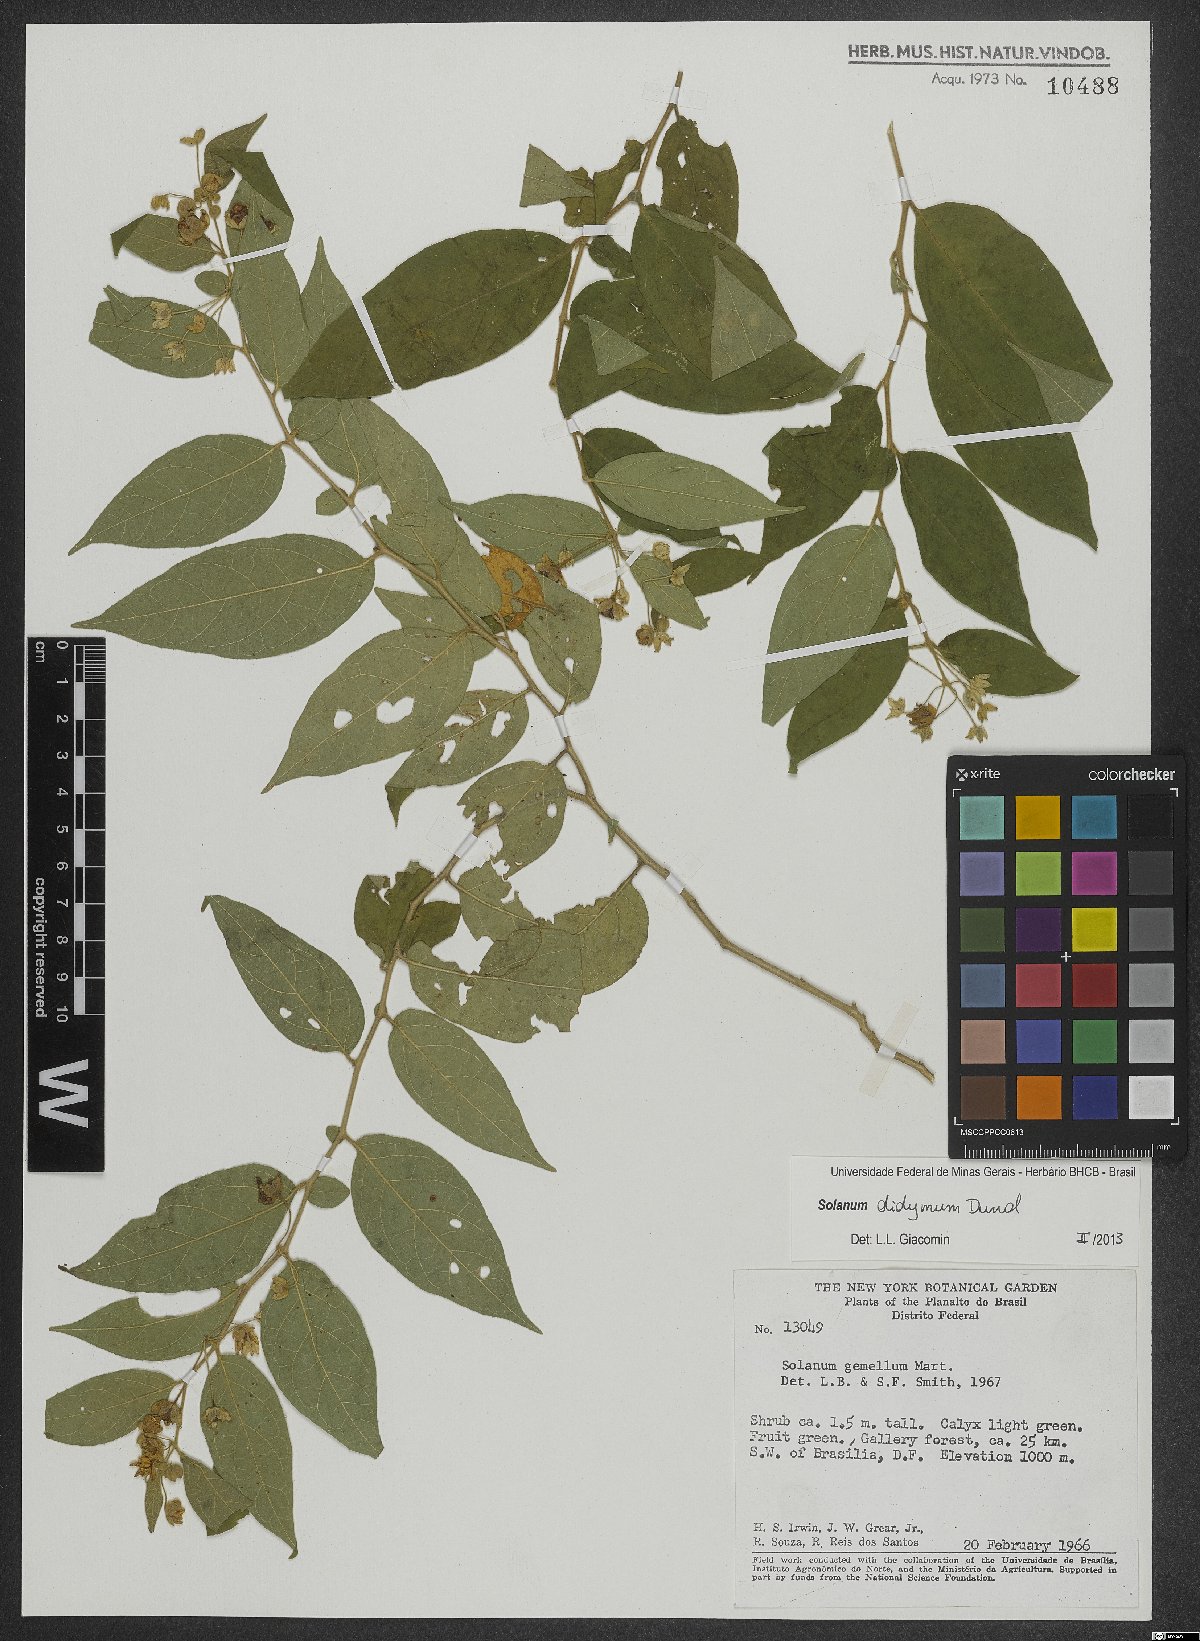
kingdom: Plantae
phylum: Tracheophyta
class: Magnoliopsida
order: Solanales
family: Solanaceae
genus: Solanum
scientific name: Solanum didymum
